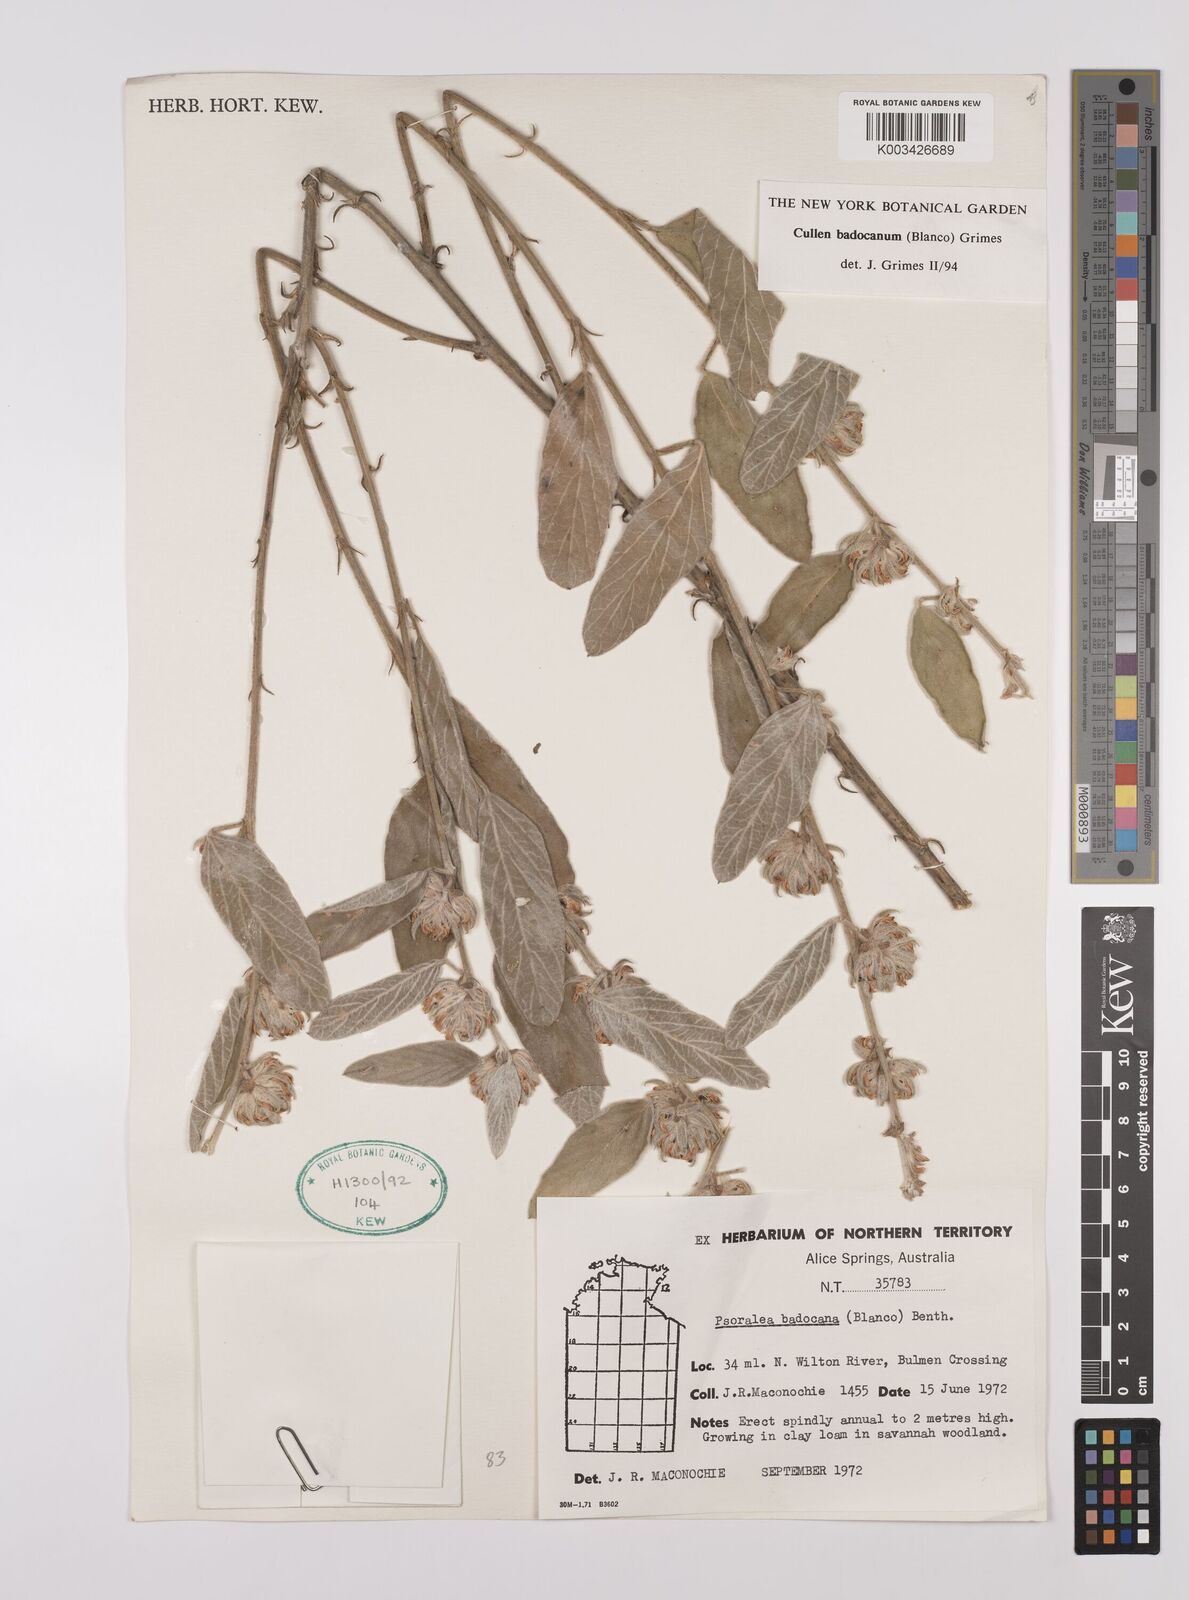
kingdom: Plantae
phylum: Tracheophyta
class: Magnoliopsida
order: Fabales
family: Fabaceae
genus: Cullen
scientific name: Cullen badocanum
